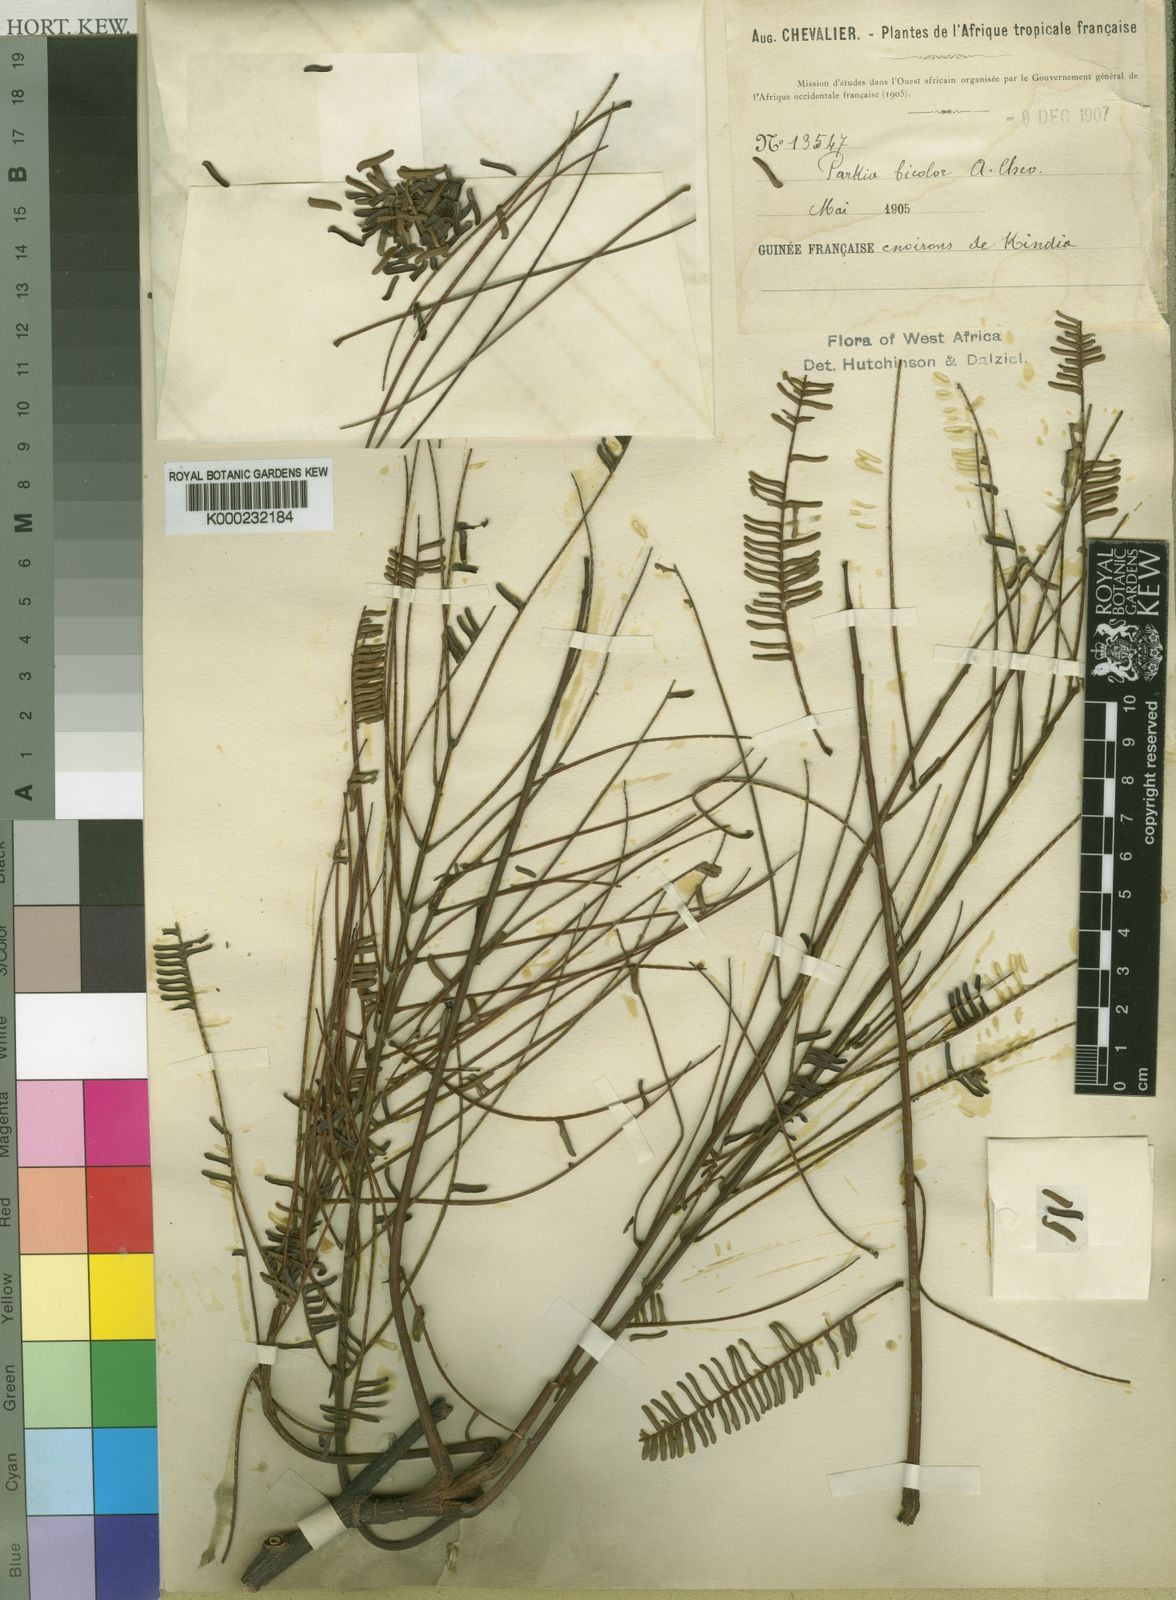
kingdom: Plantae
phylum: Tracheophyta
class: Magnoliopsida
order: Fabales
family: Fabaceae
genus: Parkia
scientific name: Parkia bicolor
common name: African locust-bean
